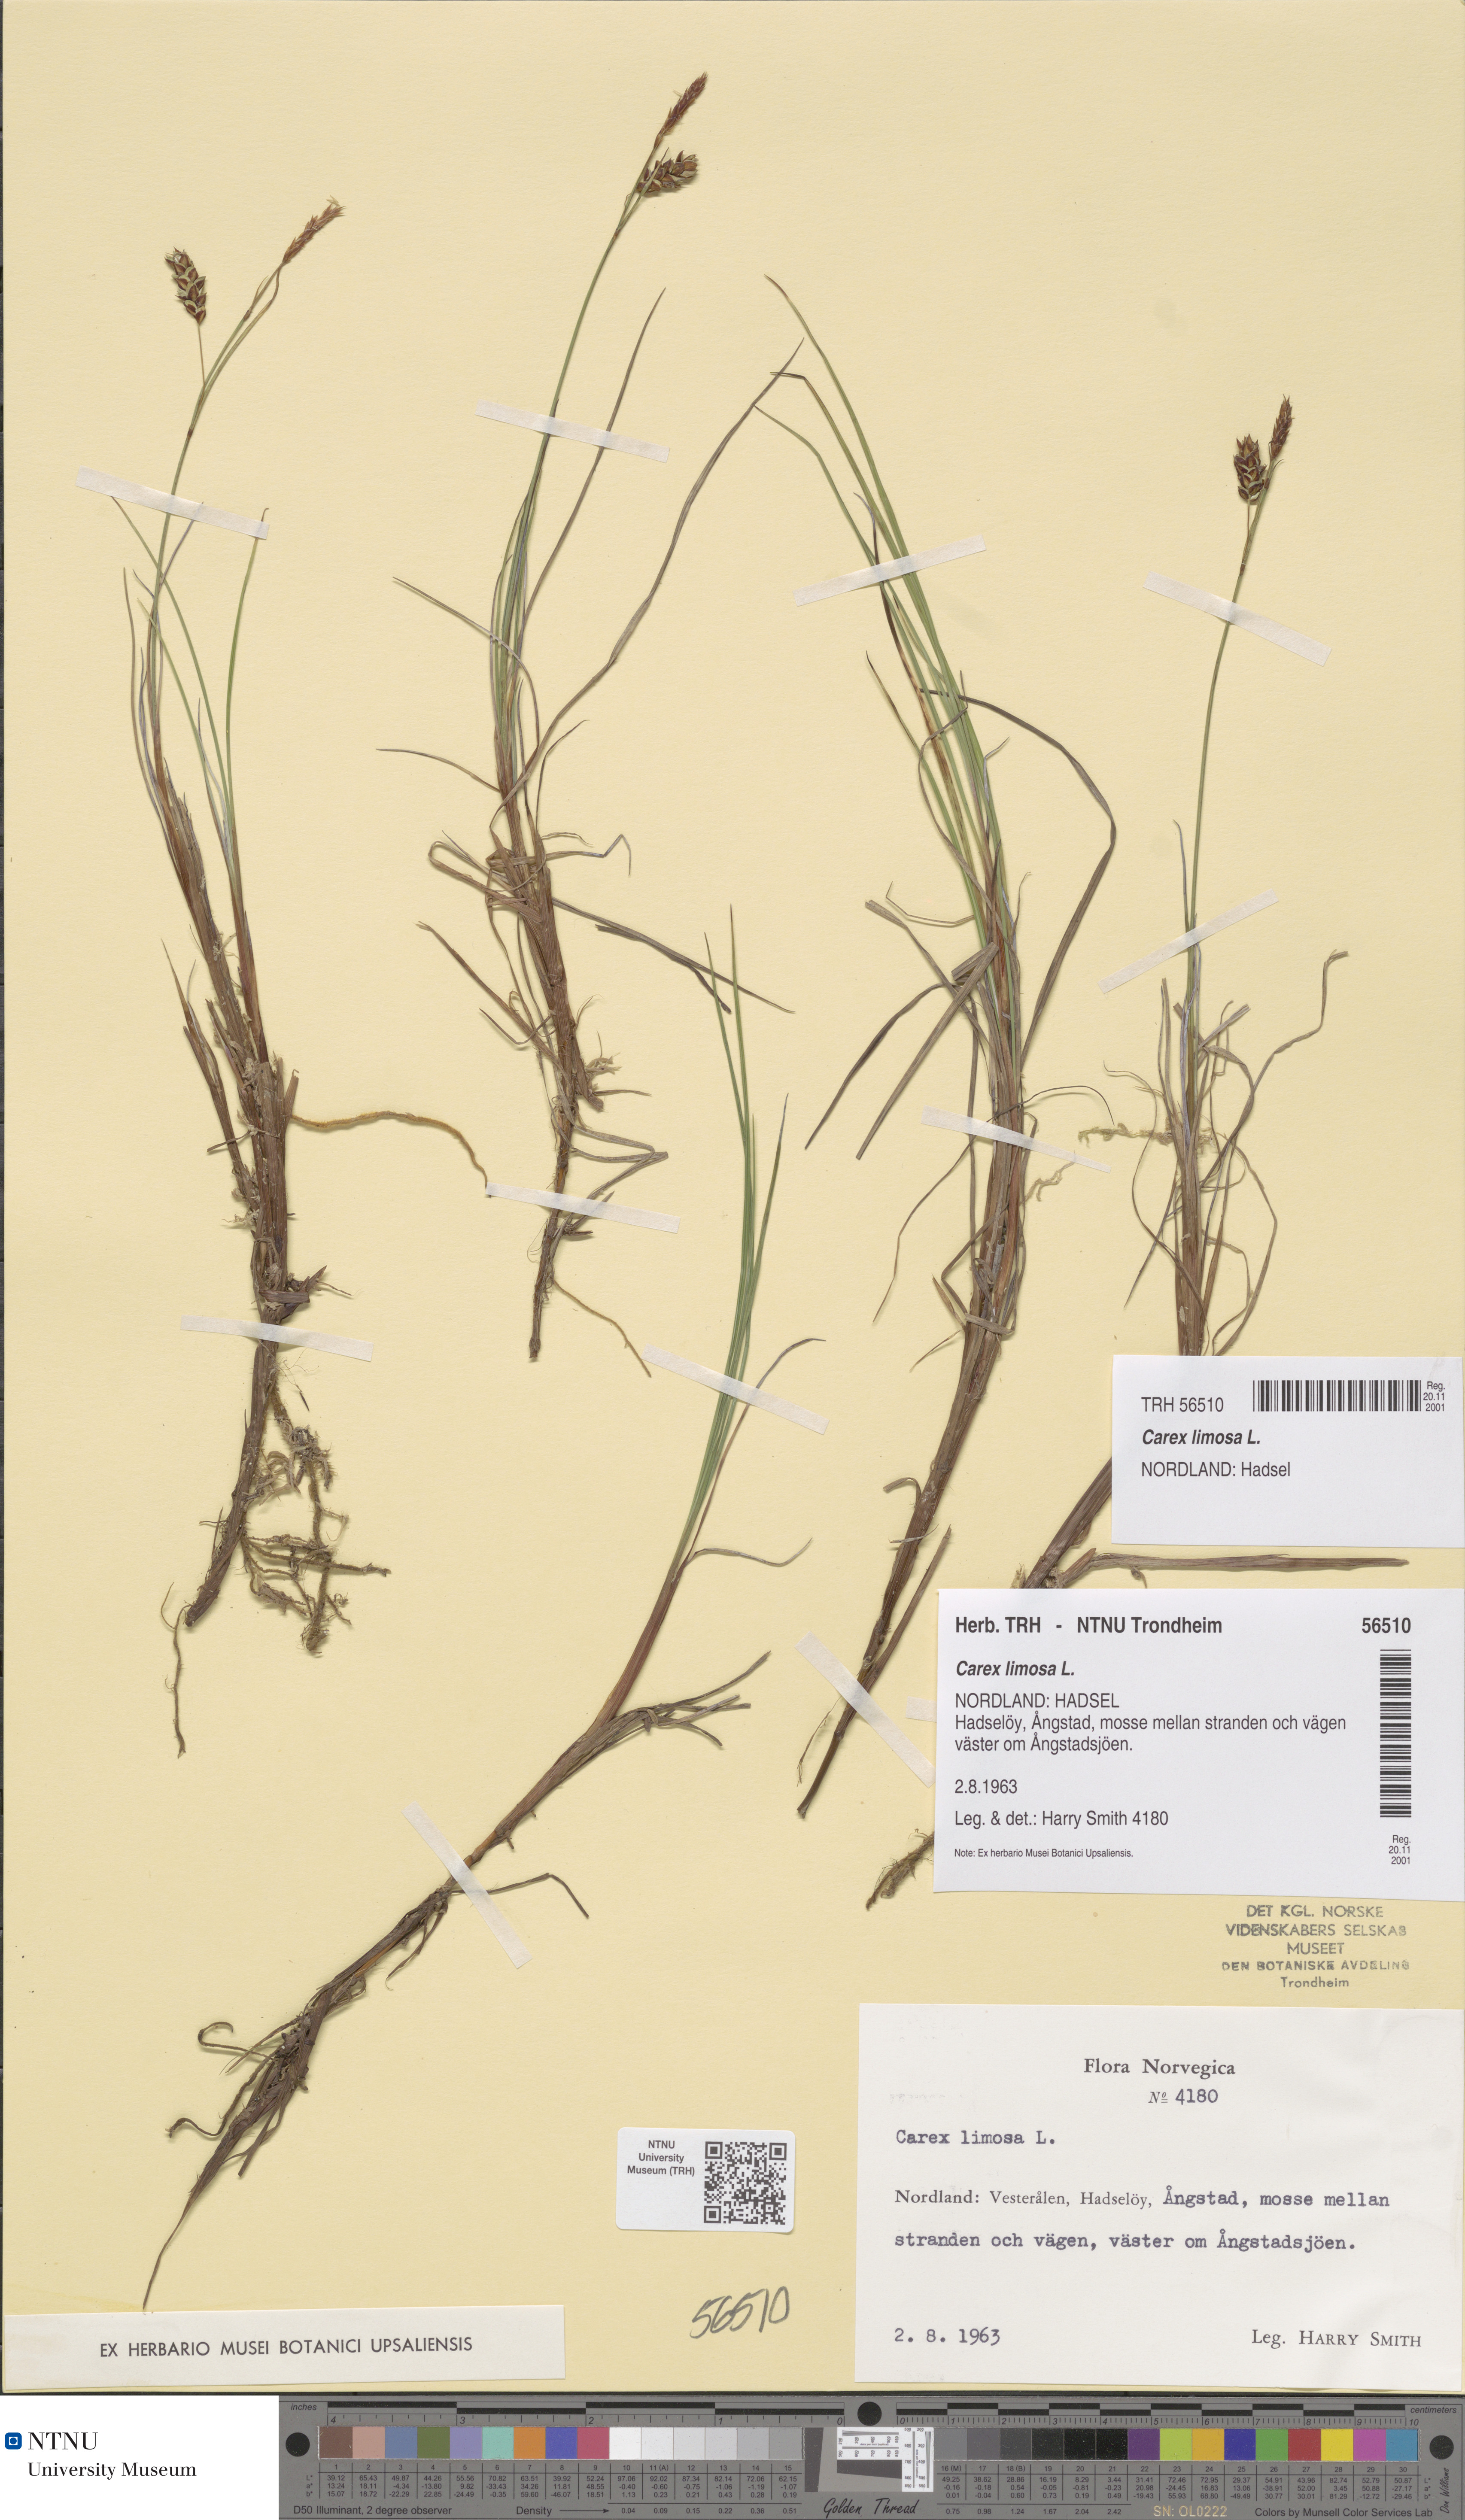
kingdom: Plantae
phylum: Tracheophyta
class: Liliopsida
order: Poales
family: Cyperaceae
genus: Carex
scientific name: Carex limosa
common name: Bog sedge
